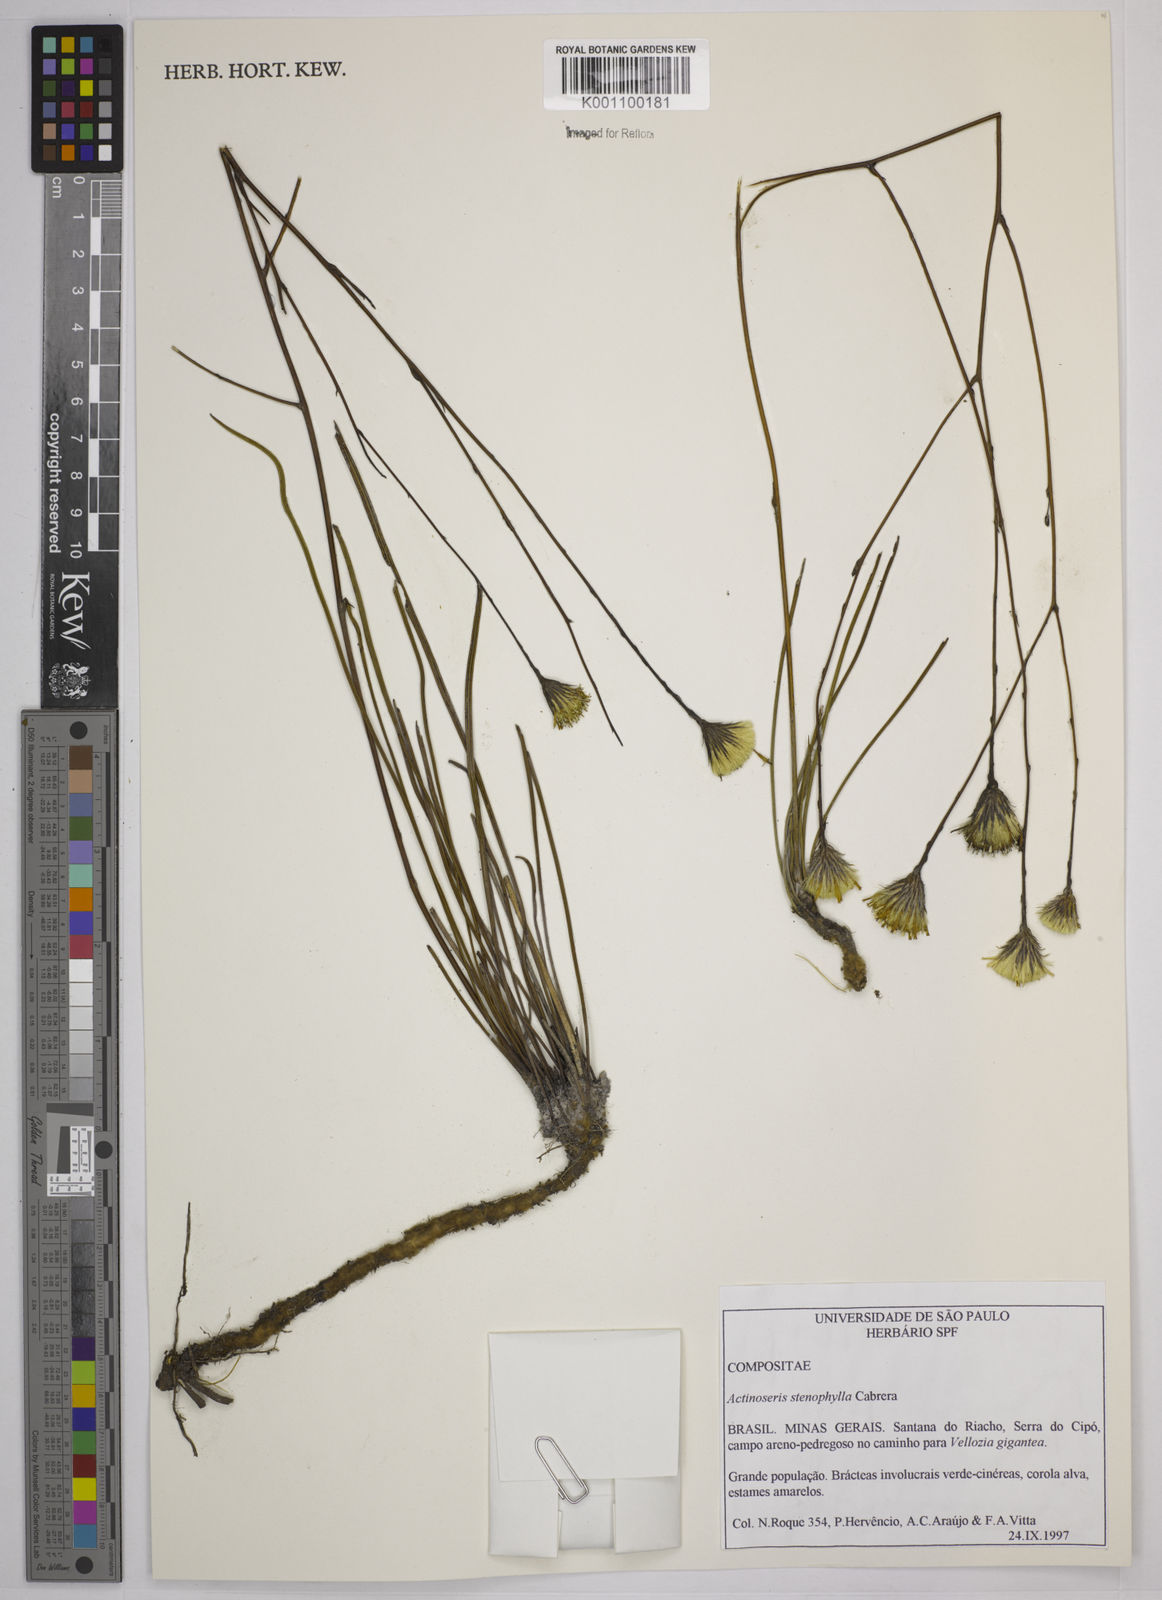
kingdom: Plantae
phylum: Tracheophyta
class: Magnoliopsida
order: Asterales
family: Asteraceae
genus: Richterago
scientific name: Richterago stenophylla
